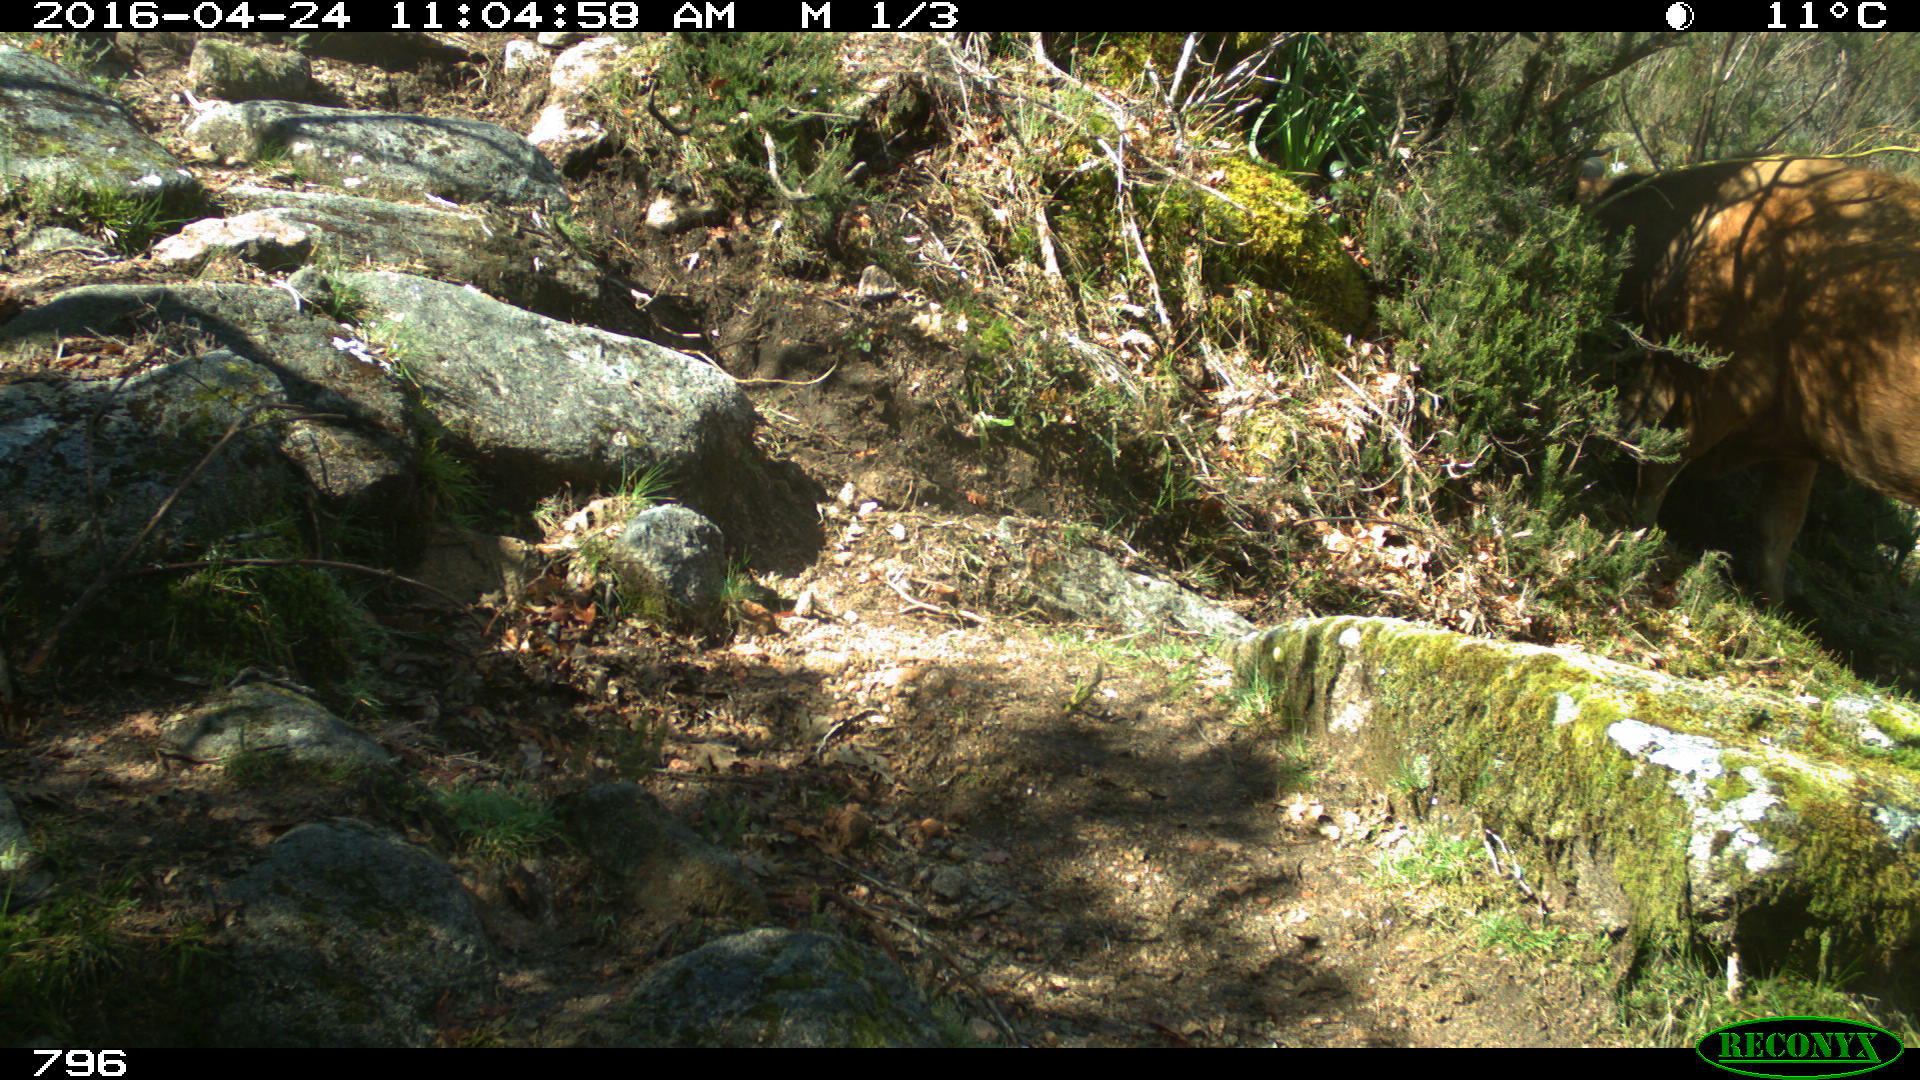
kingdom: Animalia
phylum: Chordata
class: Mammalia
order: Artiodactyla
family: Bovidae
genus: Bos
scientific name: Bos taurus
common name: Domesticated cattle
